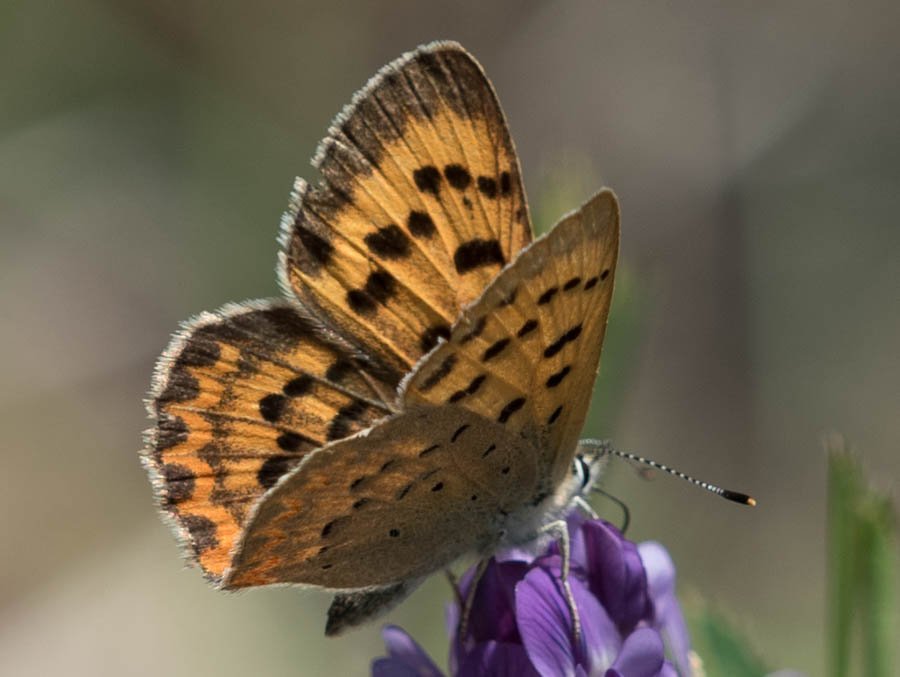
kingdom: Animalia
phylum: Arthropoda
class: Insecta
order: Lepidoptera
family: Sesiidae
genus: Sesia
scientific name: Sesia Lycaena helloides
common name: Purplish Copper
